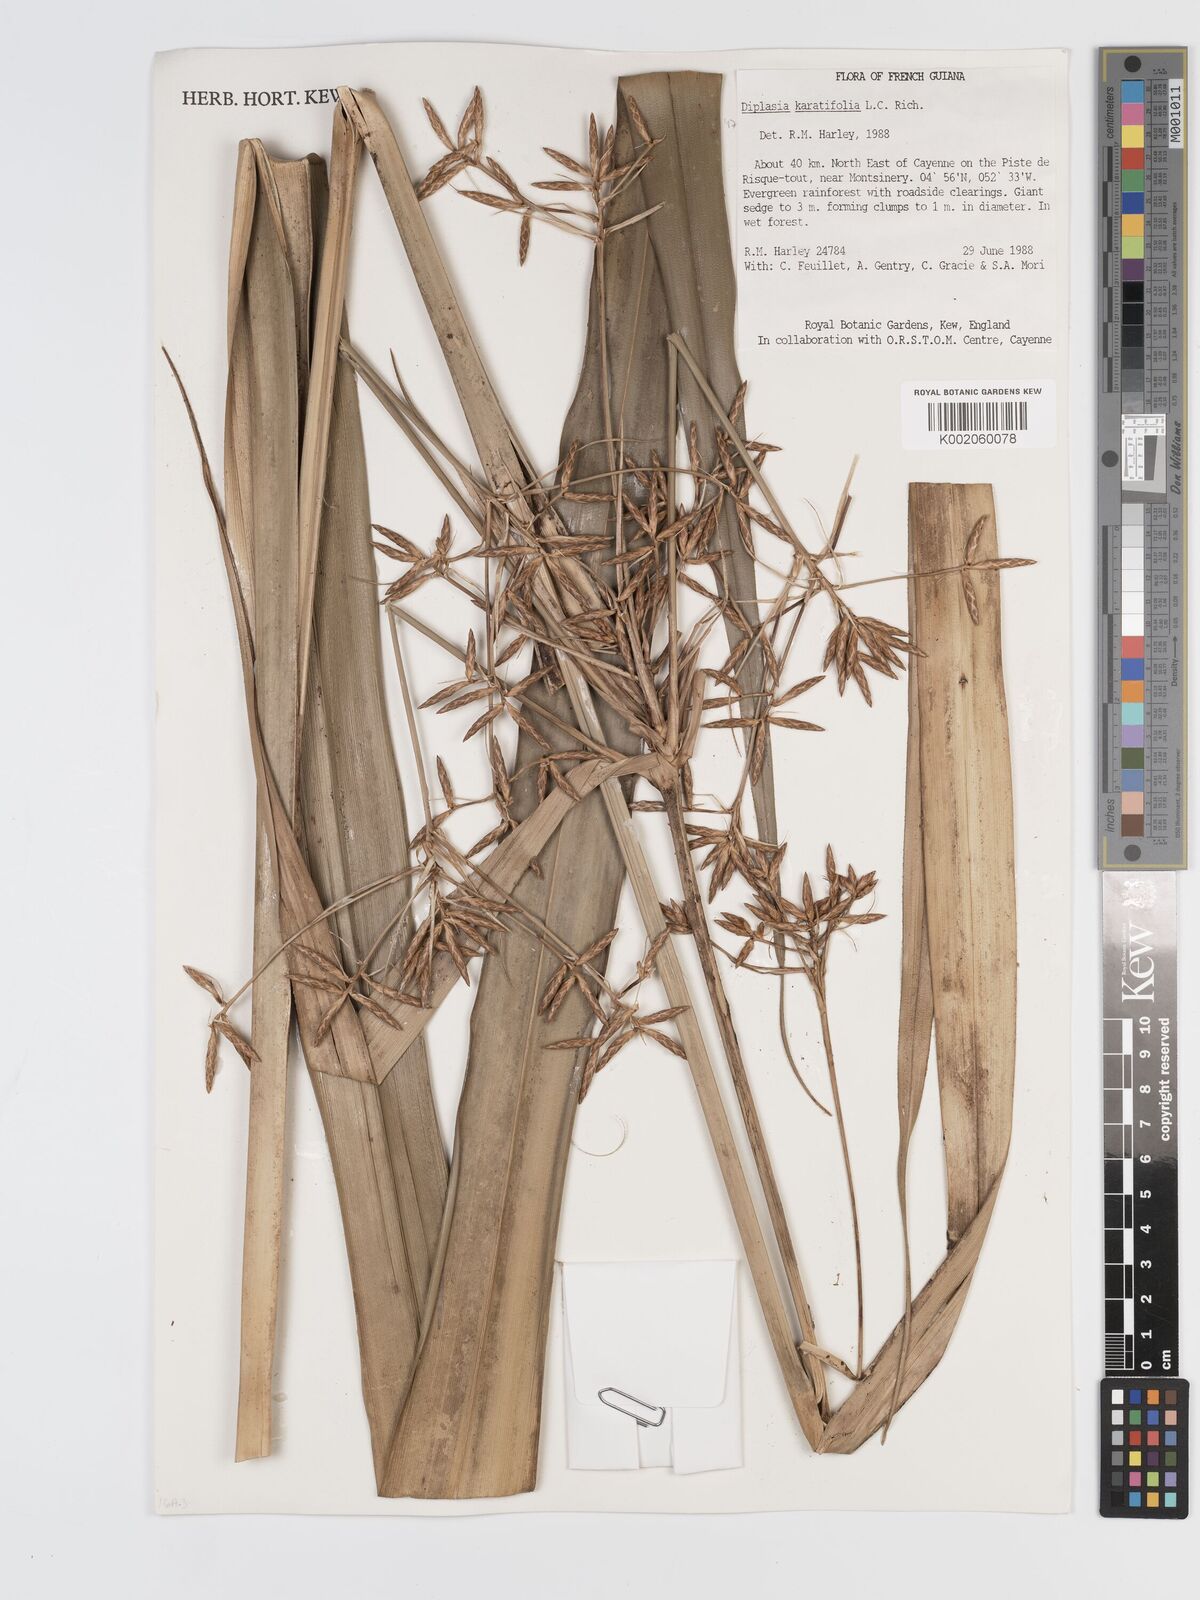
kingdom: Plantae
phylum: Tracheophyta
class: Liliopsida
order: Poales
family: Cyperaceae
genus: Diplasia
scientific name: Diplasia karatifolia
